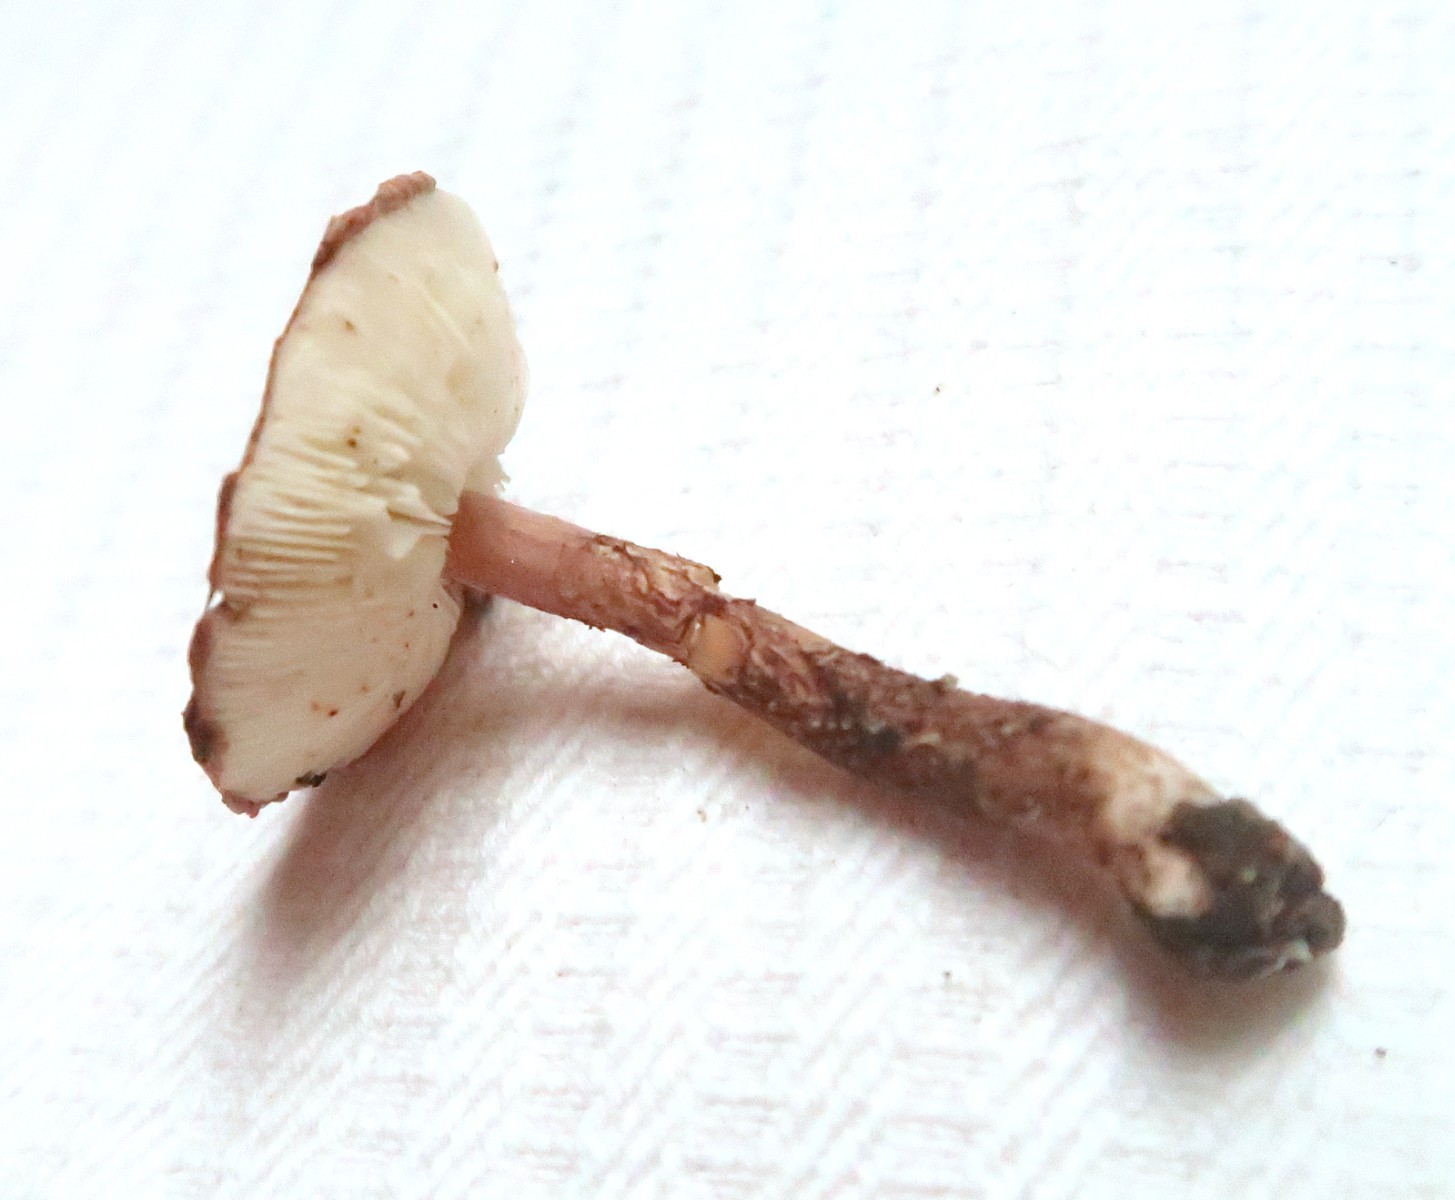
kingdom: Fungi
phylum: Basidiomycota
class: Agaricomycetes
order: Agaricales
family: Agaricaceae
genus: Echinoderma
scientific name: Echinoderma
